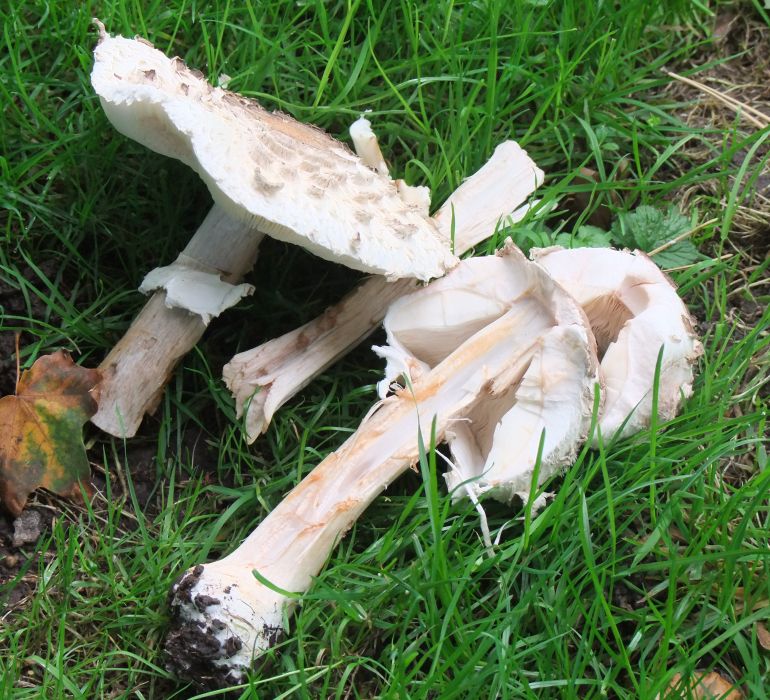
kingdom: Fungi
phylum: Basidiomycota
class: Agaricomycetes
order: Agaricales
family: Agaricaceae
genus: Chlorophyllum
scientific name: Chlorophyllum rhacodes
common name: ægte rabarberhat
